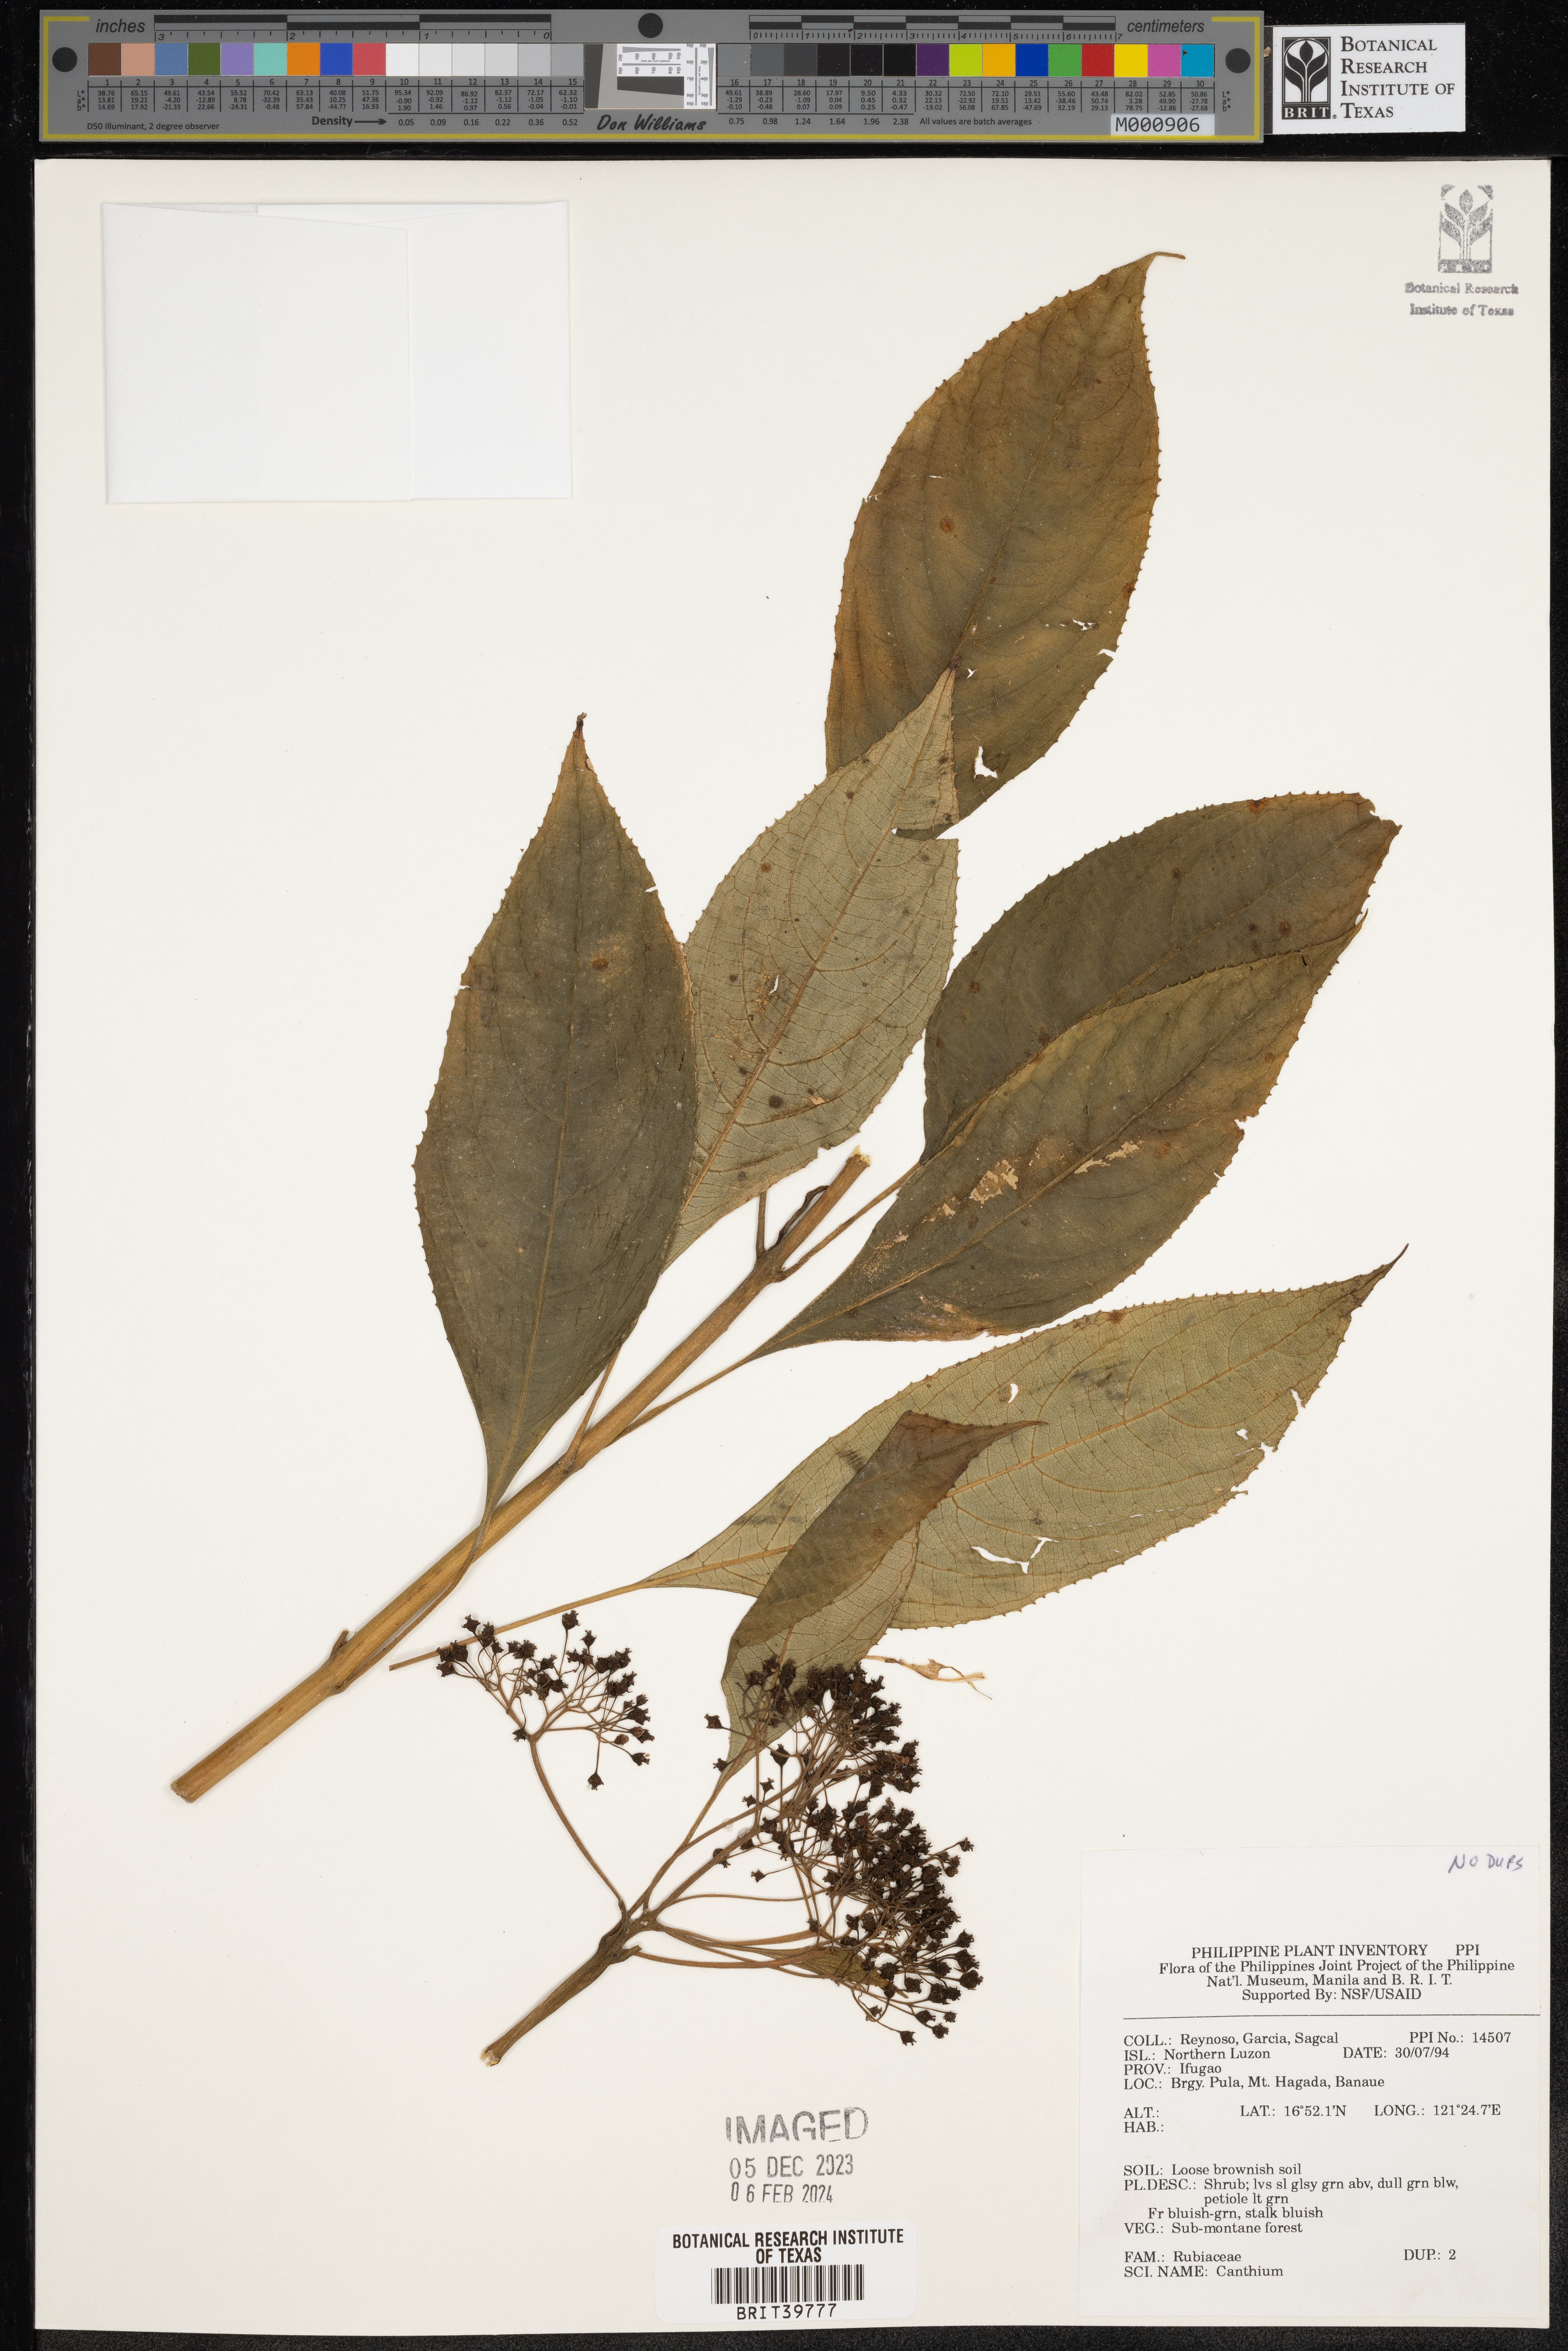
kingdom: Plantae
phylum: Tracheophyta
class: Magnoliopsida
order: Gentianales
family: Rubiaceae
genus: Canthium
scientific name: Canthium
